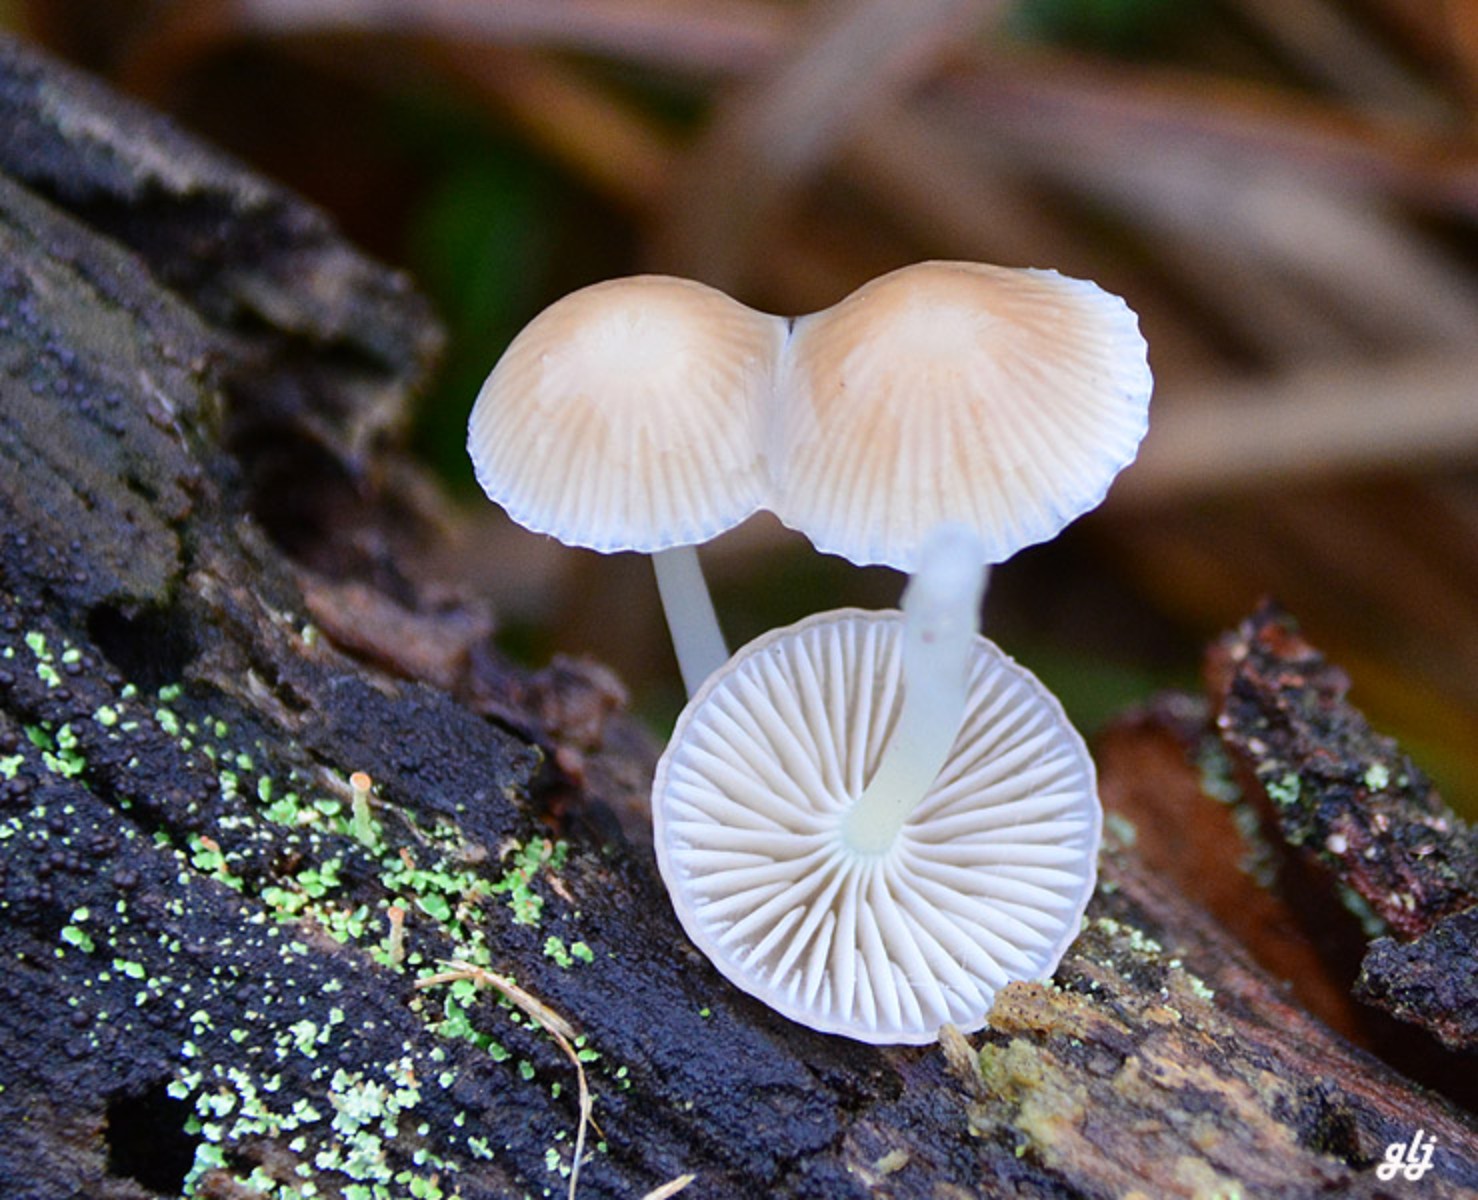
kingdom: Fungi
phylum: Basidiomycota
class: Agaricomycetes
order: Agaricales
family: Mycenaceae
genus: Mycena
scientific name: Mycena epipterygia
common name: gulstokket huesvamp
